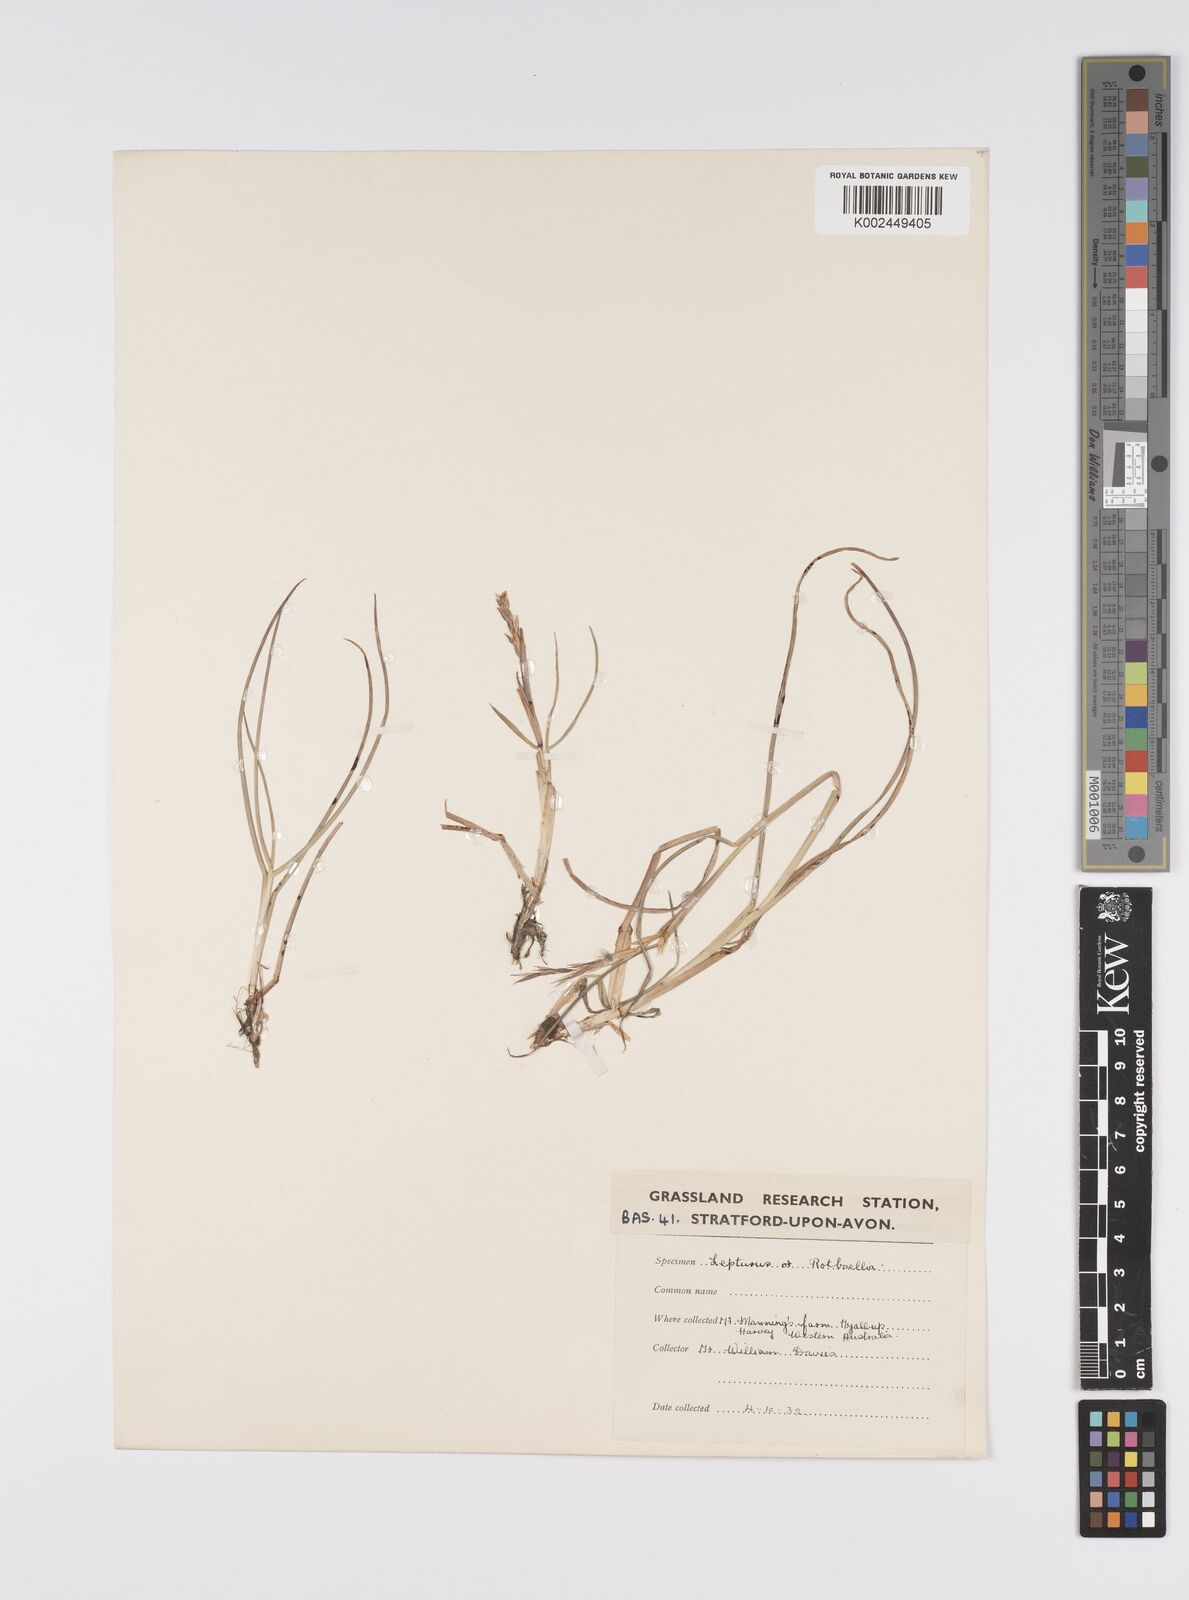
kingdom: Plantae
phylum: Tracheophyta
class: Liliopsida
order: Poales
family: Poaceae
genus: Hemarthria
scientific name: Hemarthria uncinata
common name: Matgrass
